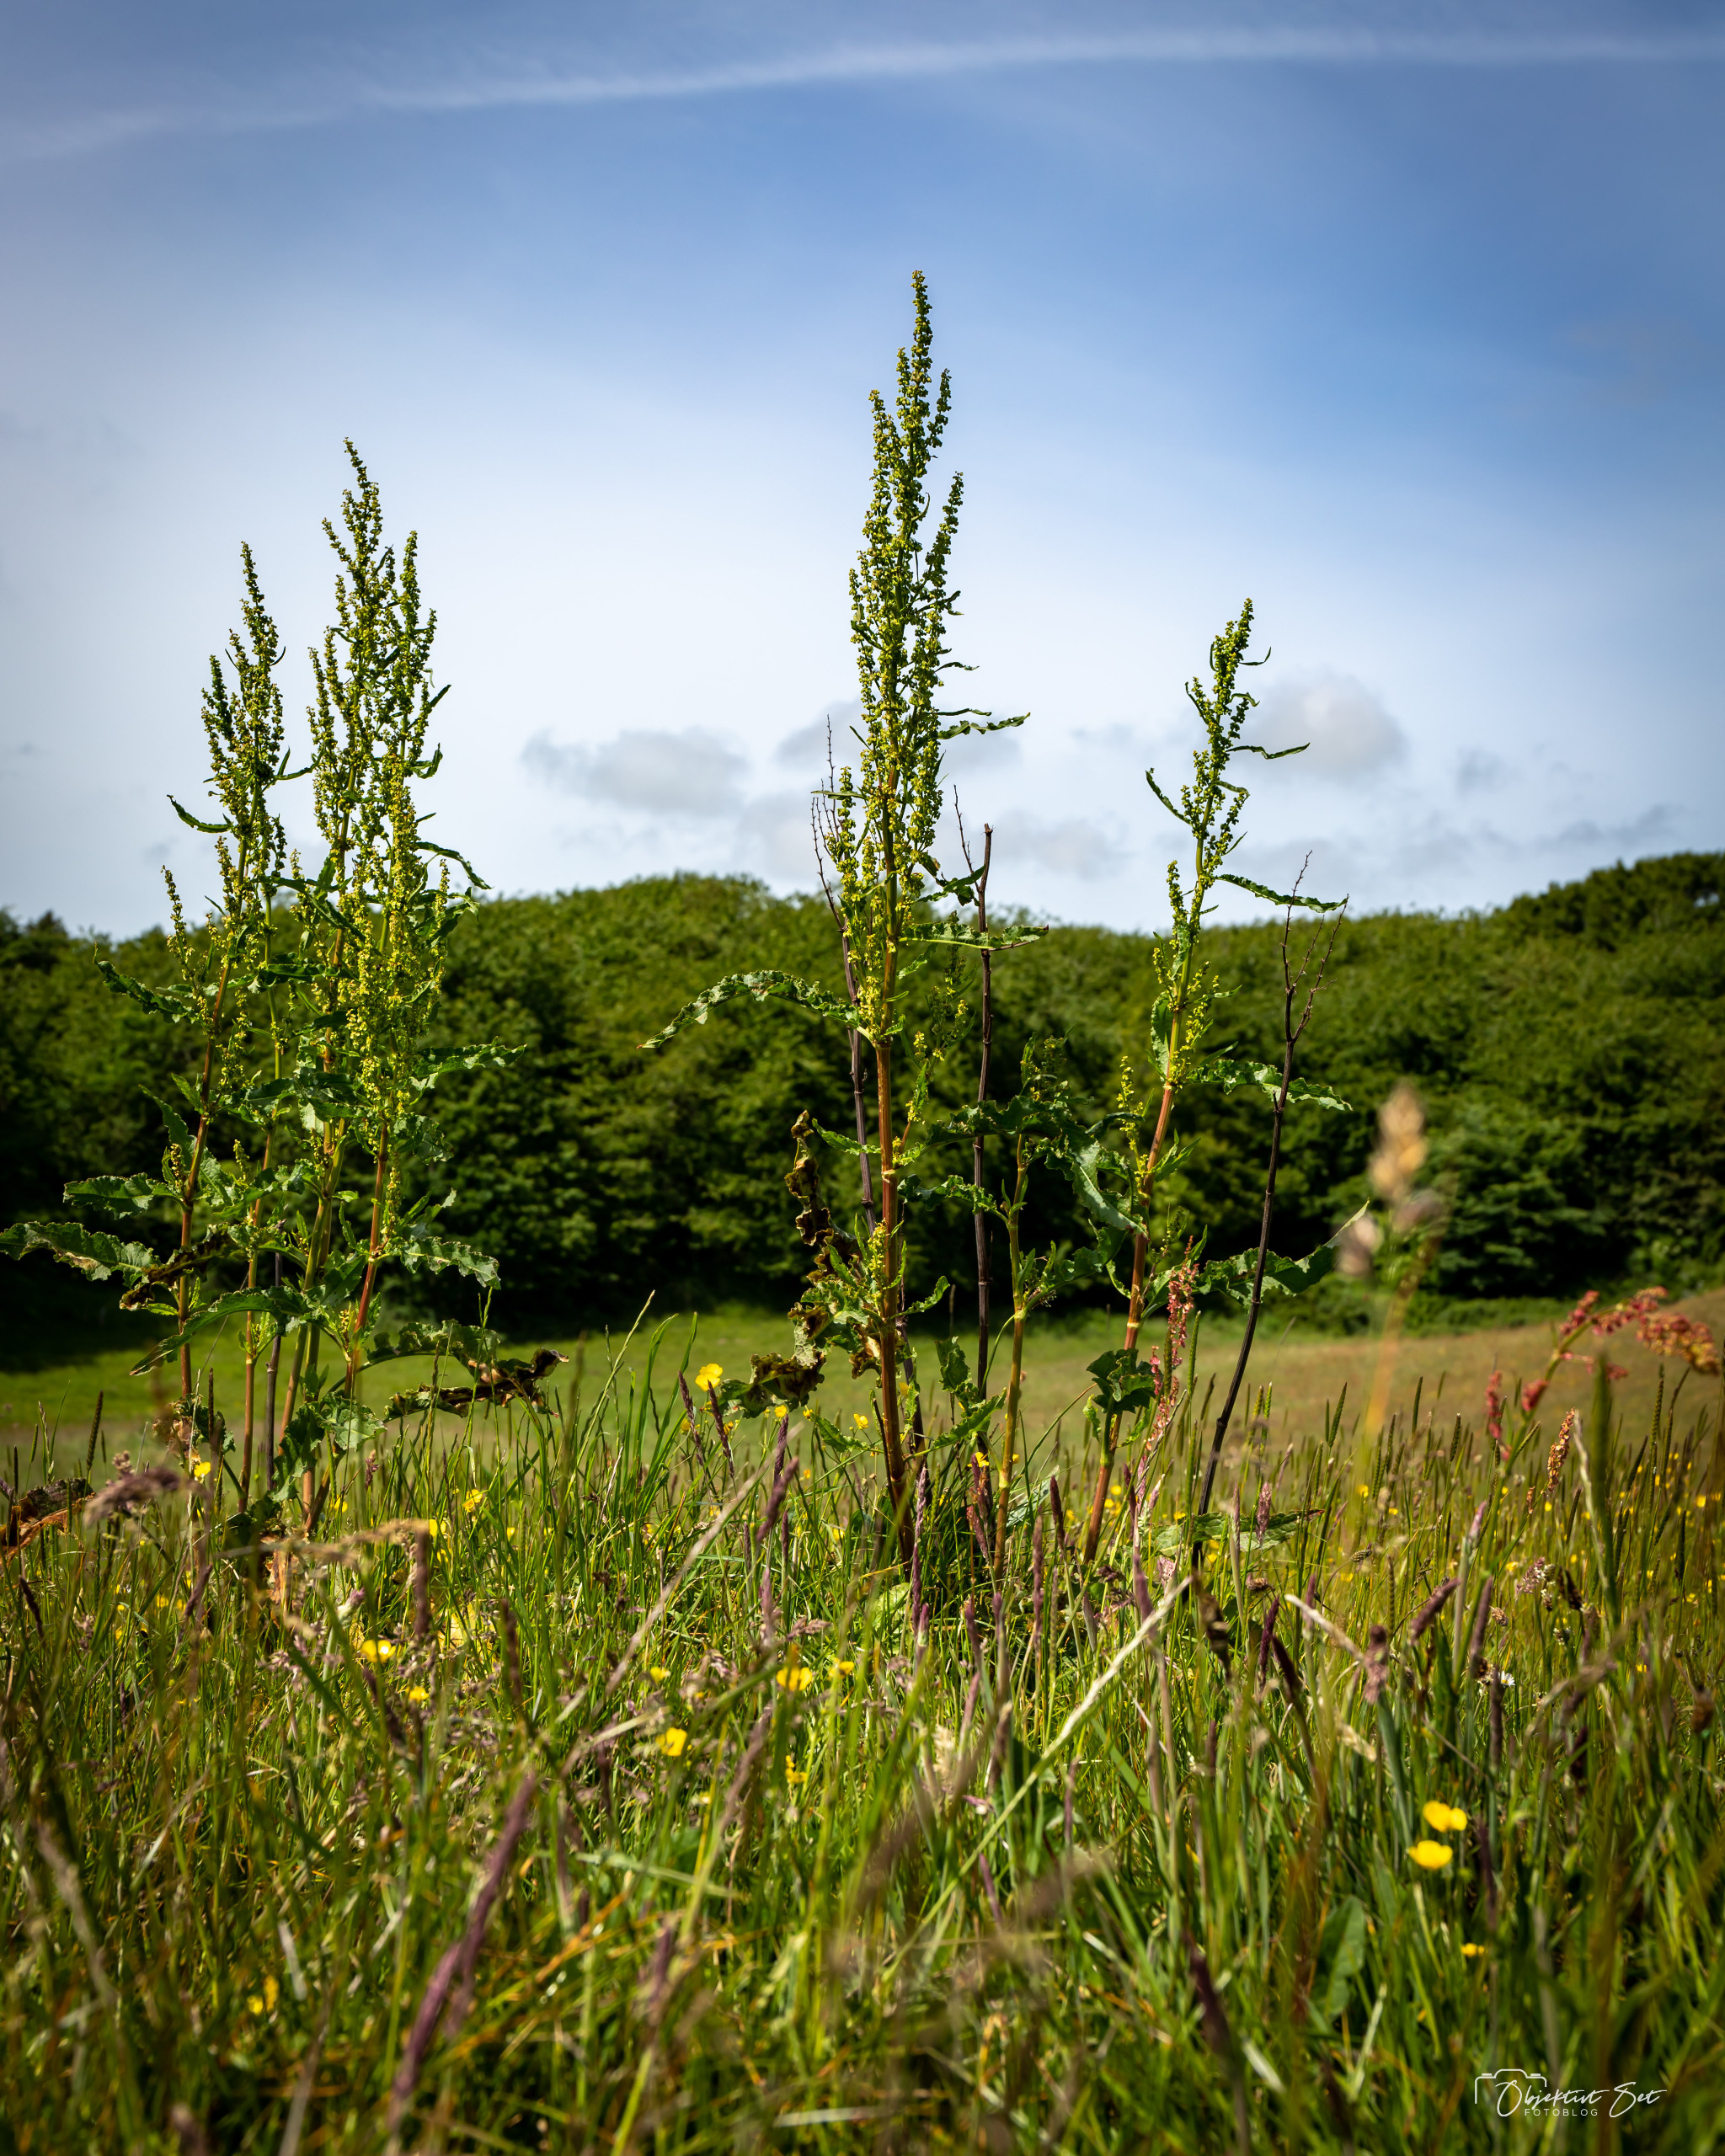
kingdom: Plantae
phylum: Tracheophyta
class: Magnoliopsida
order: Caryophyllales
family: Polygonaceae
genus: Rumex
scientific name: Rumex crispus
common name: Kruset skræppe
